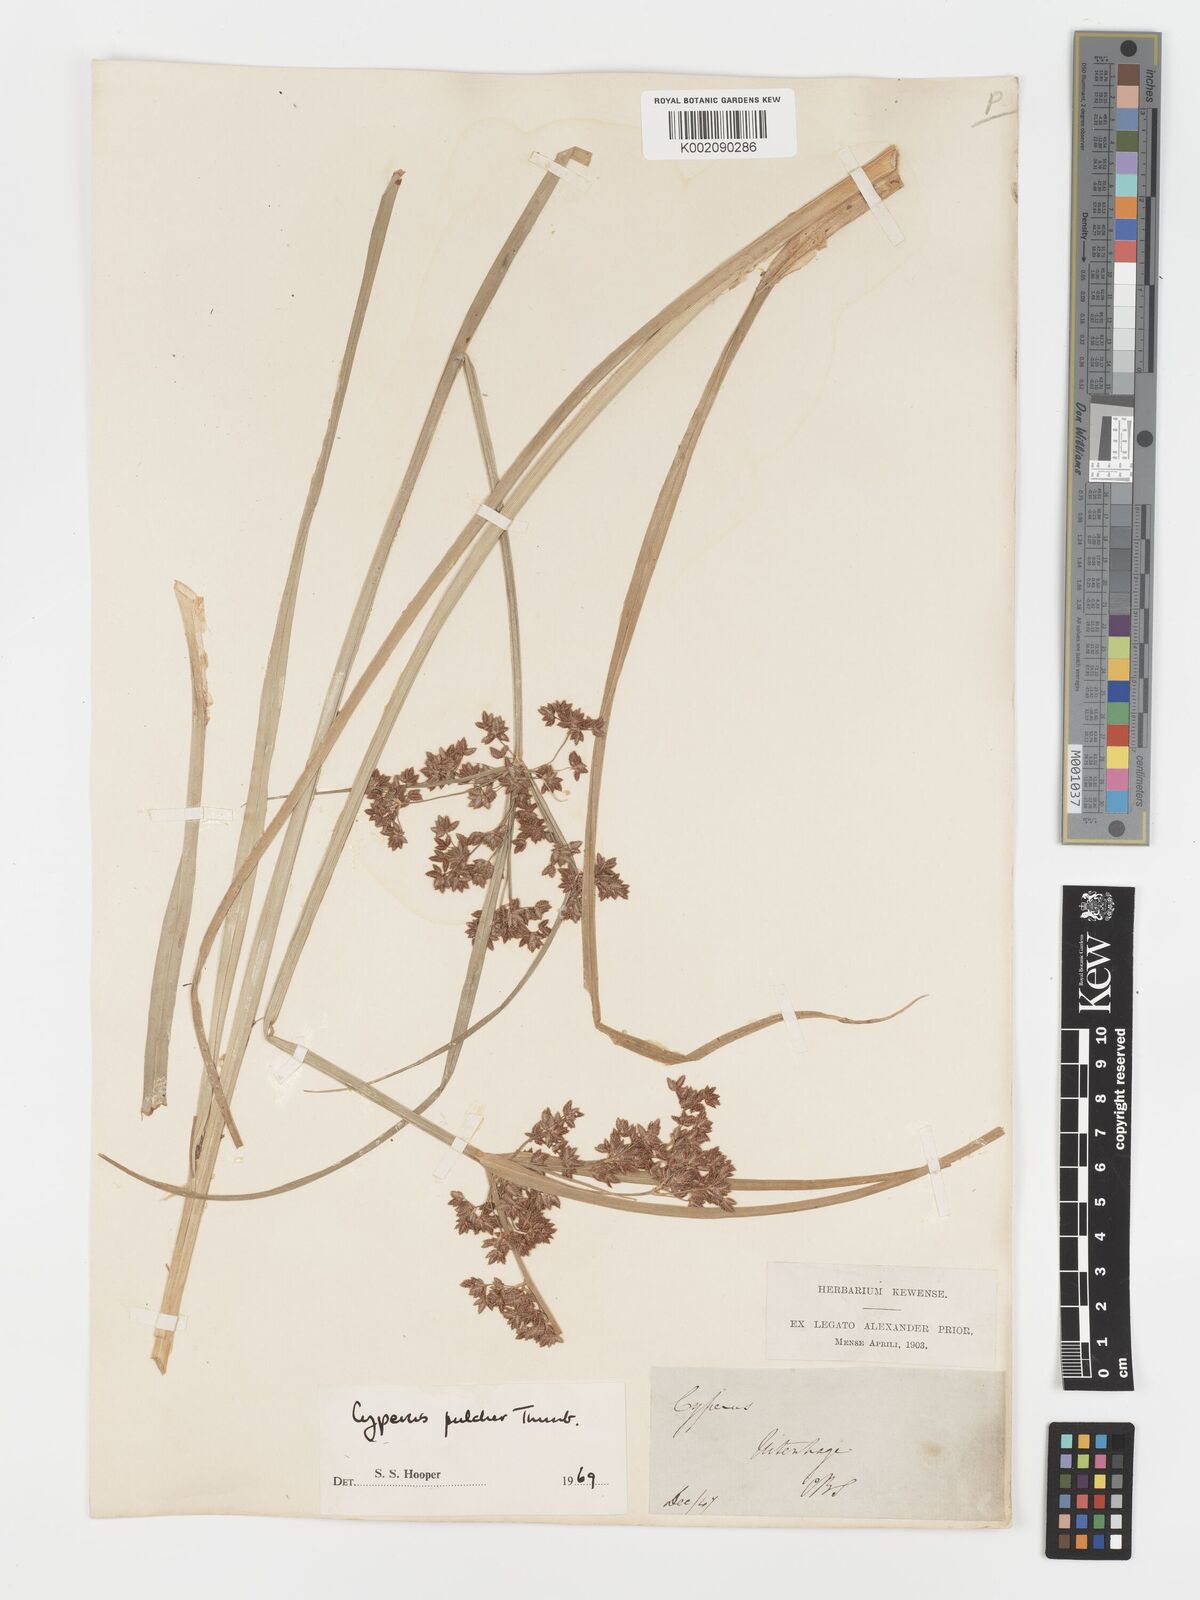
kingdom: Plantae
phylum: Tracheophyta
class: Liliopsida
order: Poales
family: Cyperaceae
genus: Cyperus
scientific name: Cyperus pulcher
